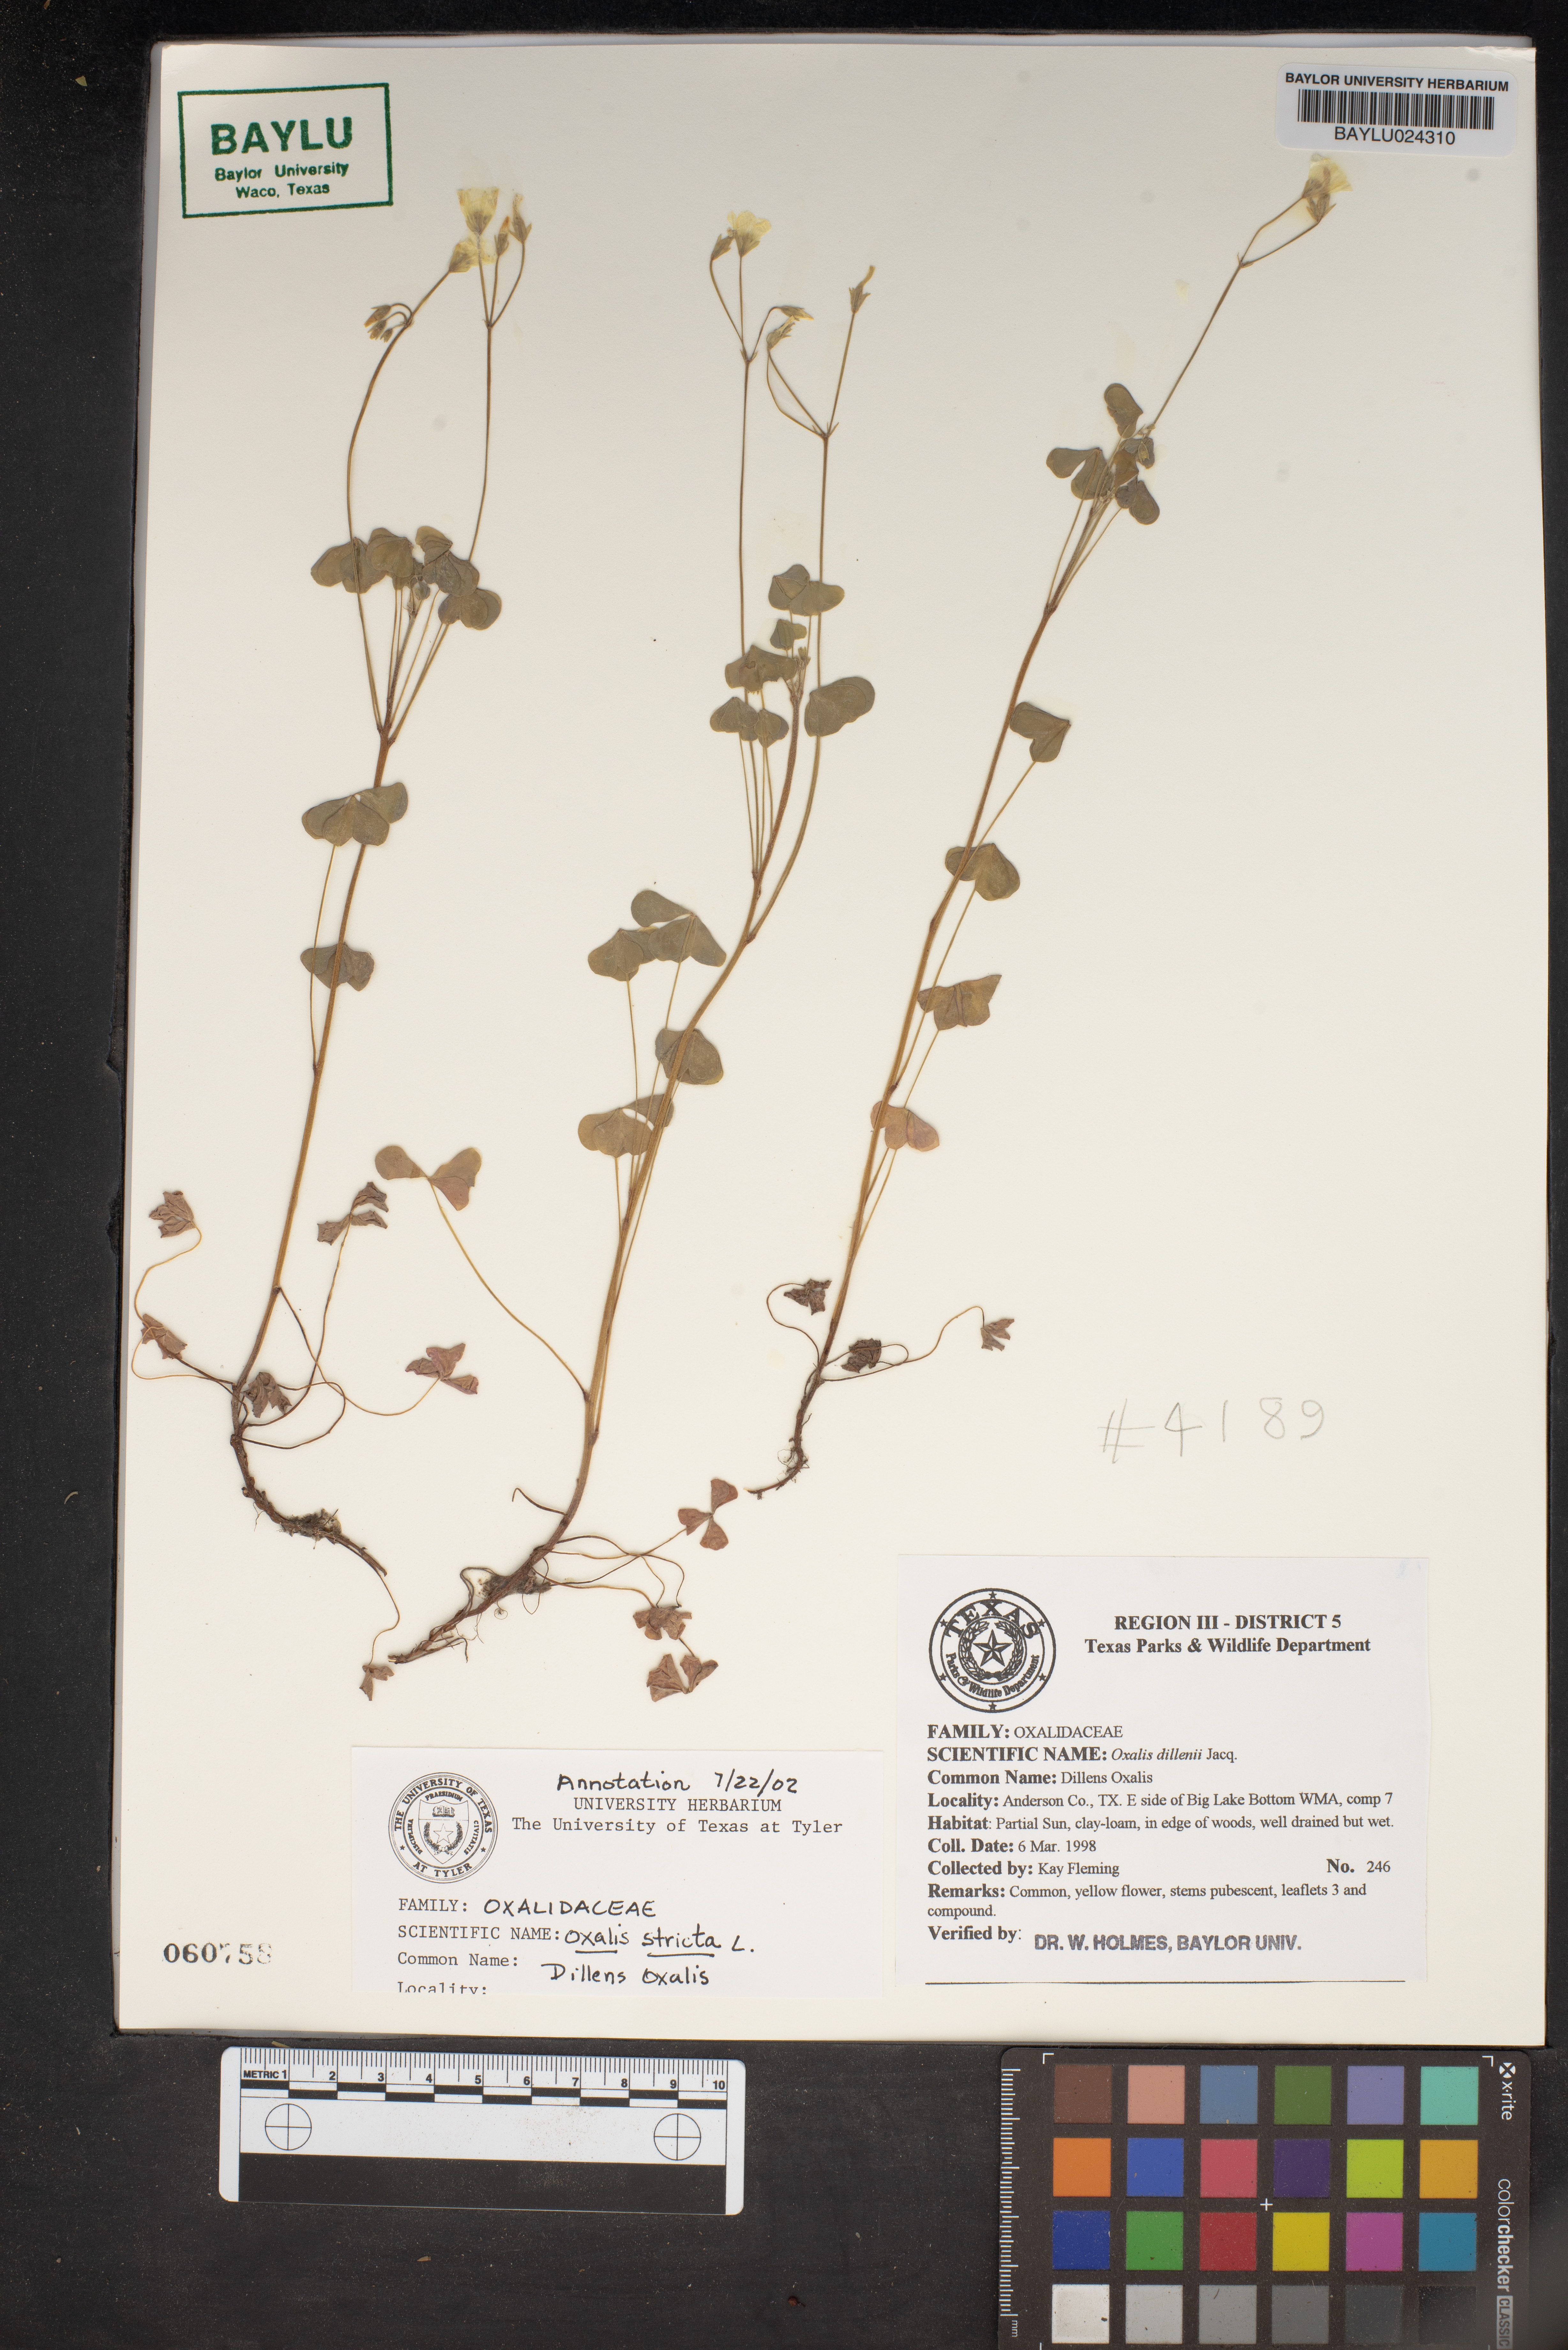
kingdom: Plantae
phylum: Tracheophyta
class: Magnoliopsida
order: Oxalidales
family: Oxalidaceae
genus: Oxalis
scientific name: Oxalis dillenii
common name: Sussex yellow-sorrel
